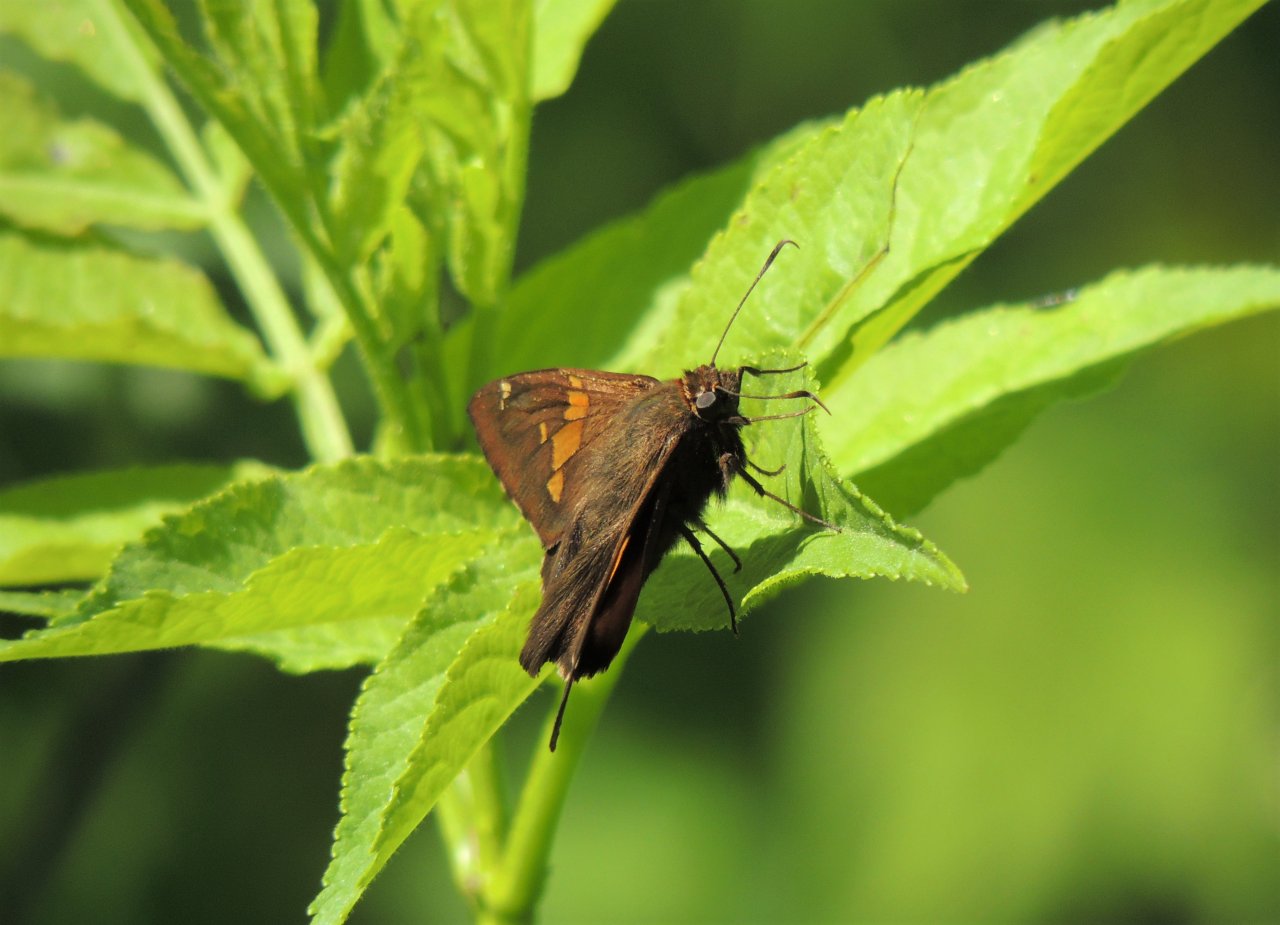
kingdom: Animalia
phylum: Arthropoda
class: Insecta
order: Lepidoptera
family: Hesperiidae
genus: Epargyreus
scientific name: Epargyreus clarus
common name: Silver-spotted Skipper
